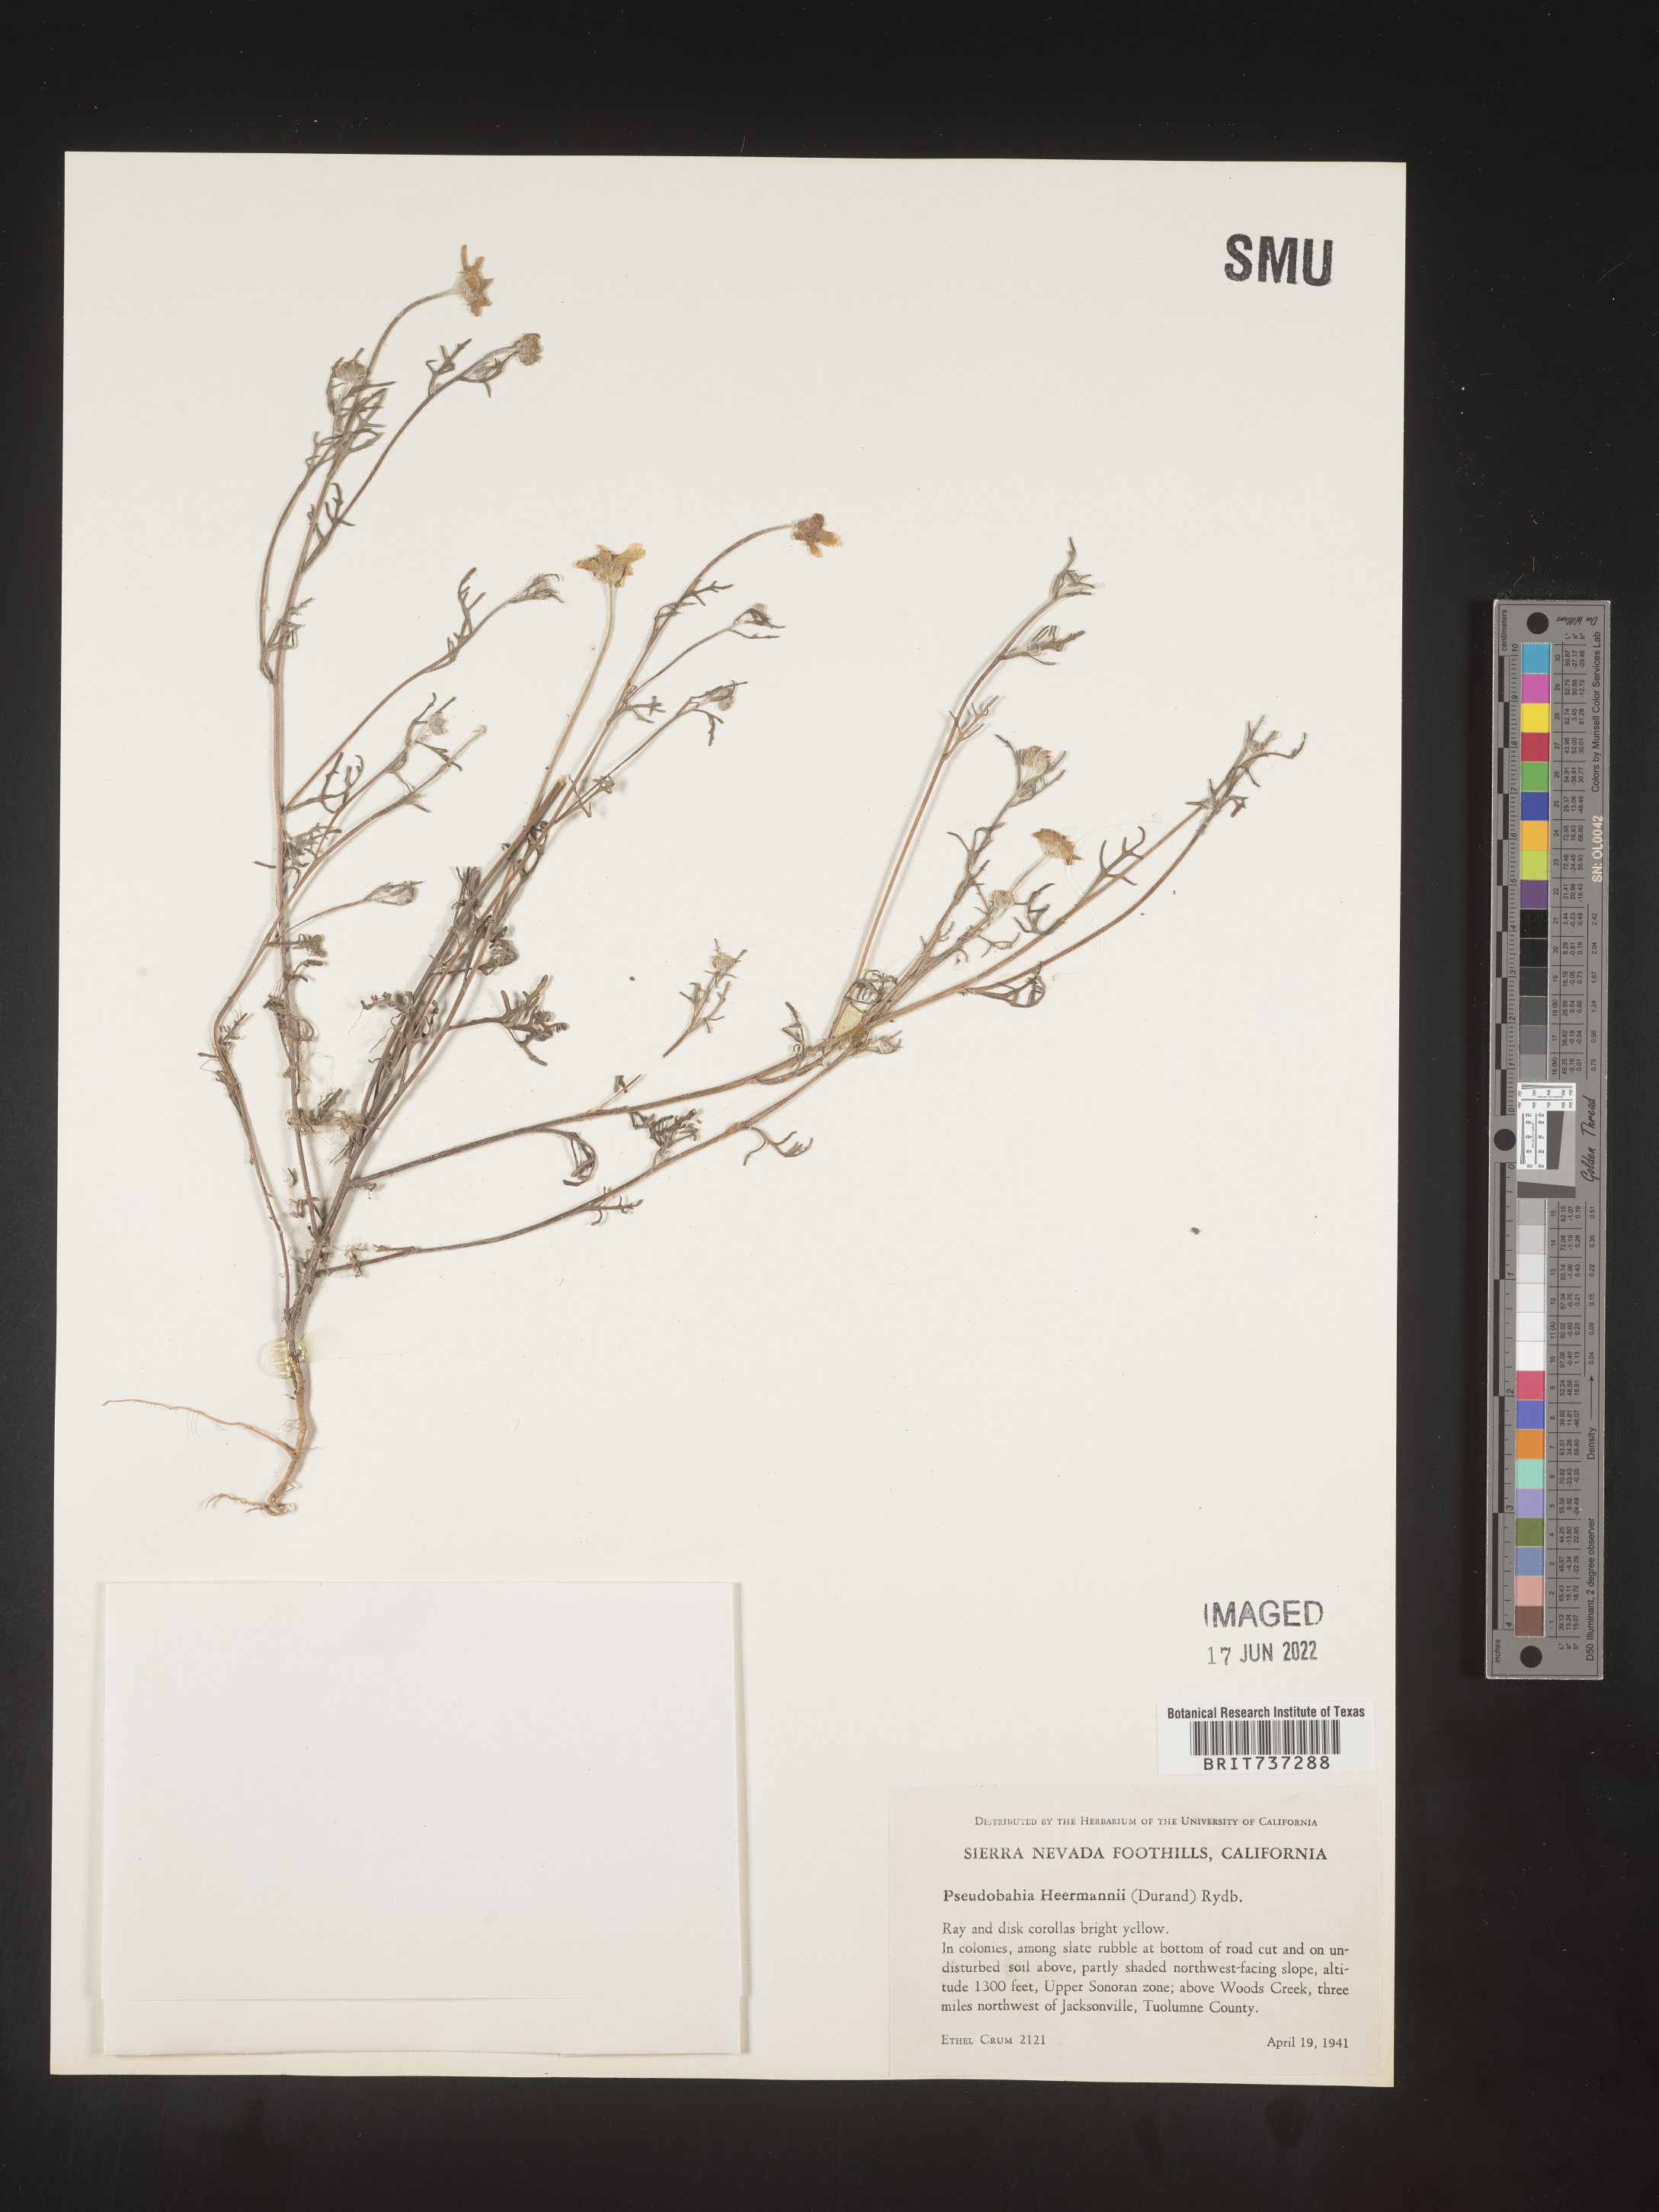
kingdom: Plantae
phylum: Tracheophyta
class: Magnoliopsida
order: Asterales
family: Asteraceae
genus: Pseudobahia
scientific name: Pseudobahia
